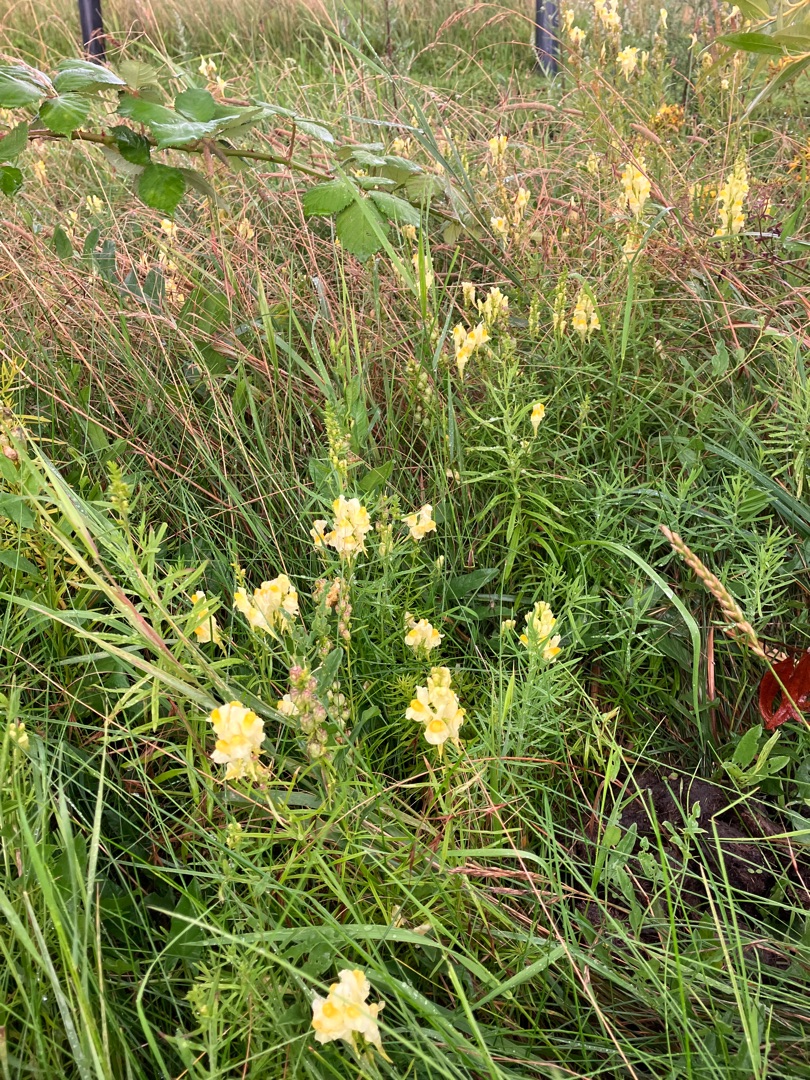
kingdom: Plantae
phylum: Tracheophyta
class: Magnoliopsida
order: Lamiales
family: Plantaginaceae
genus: Linaria
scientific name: Linaria vulgaris
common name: Almindelig torskemund
